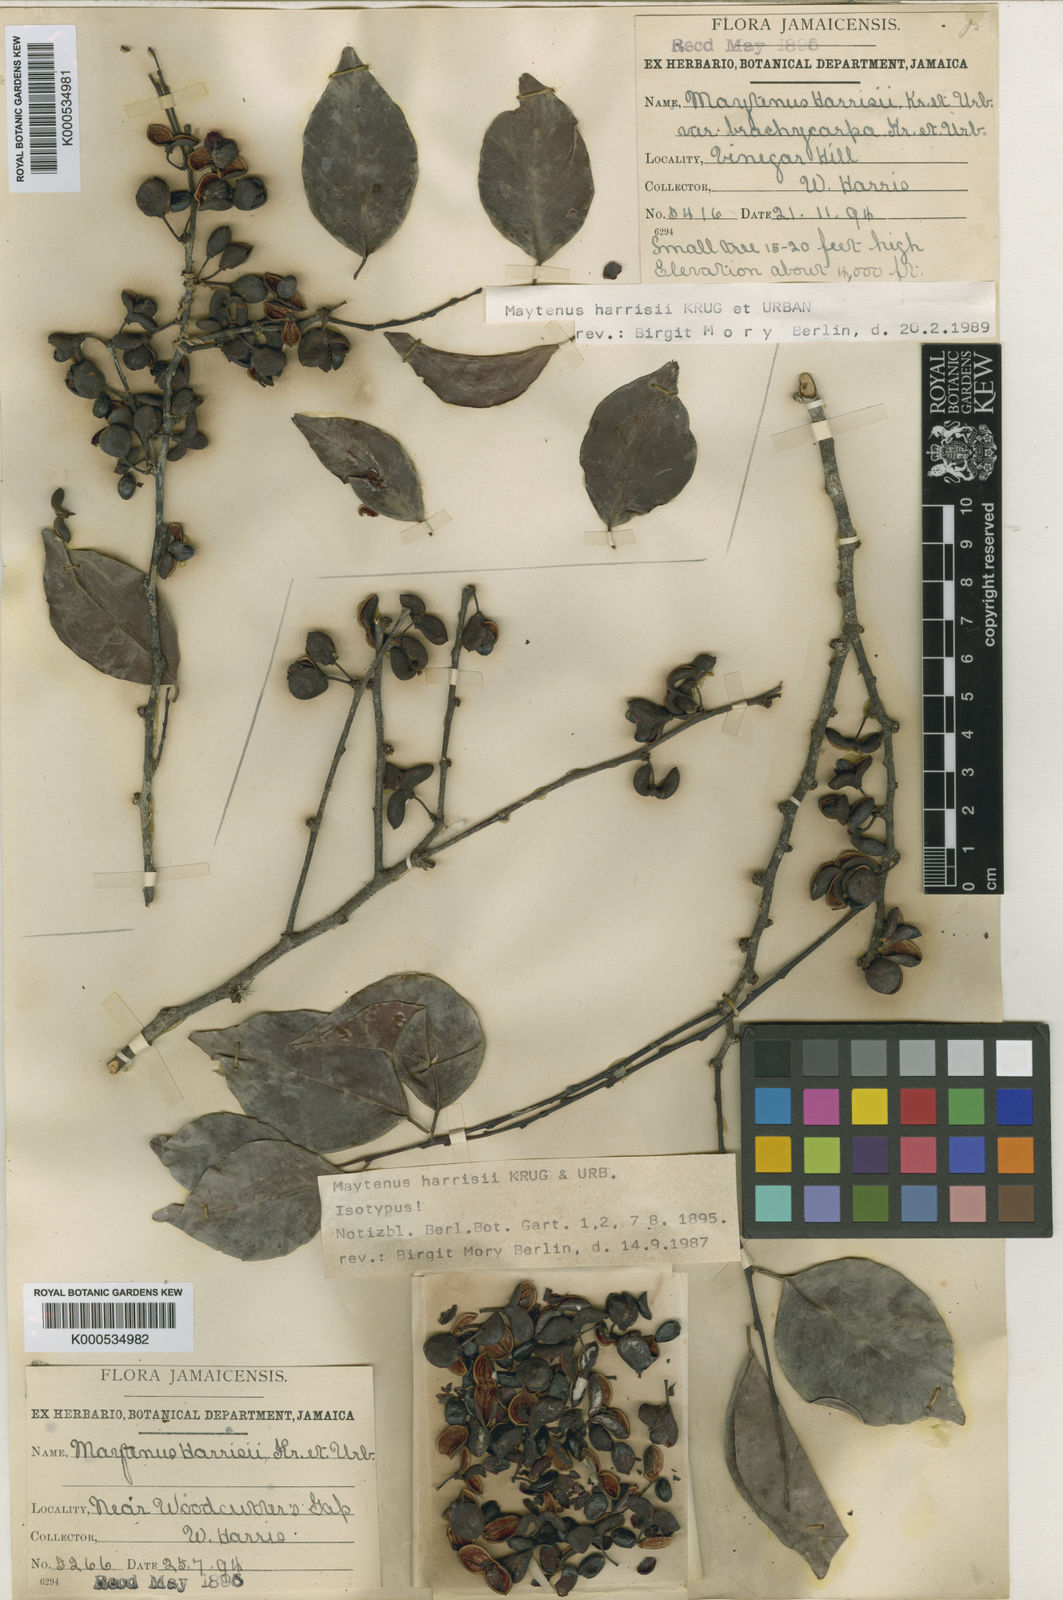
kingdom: Plantae
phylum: Tracheophyta
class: Magnoliopsida
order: Celastrales
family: Celastraceae
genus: Monteverdia
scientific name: Monteverdia harrisii
